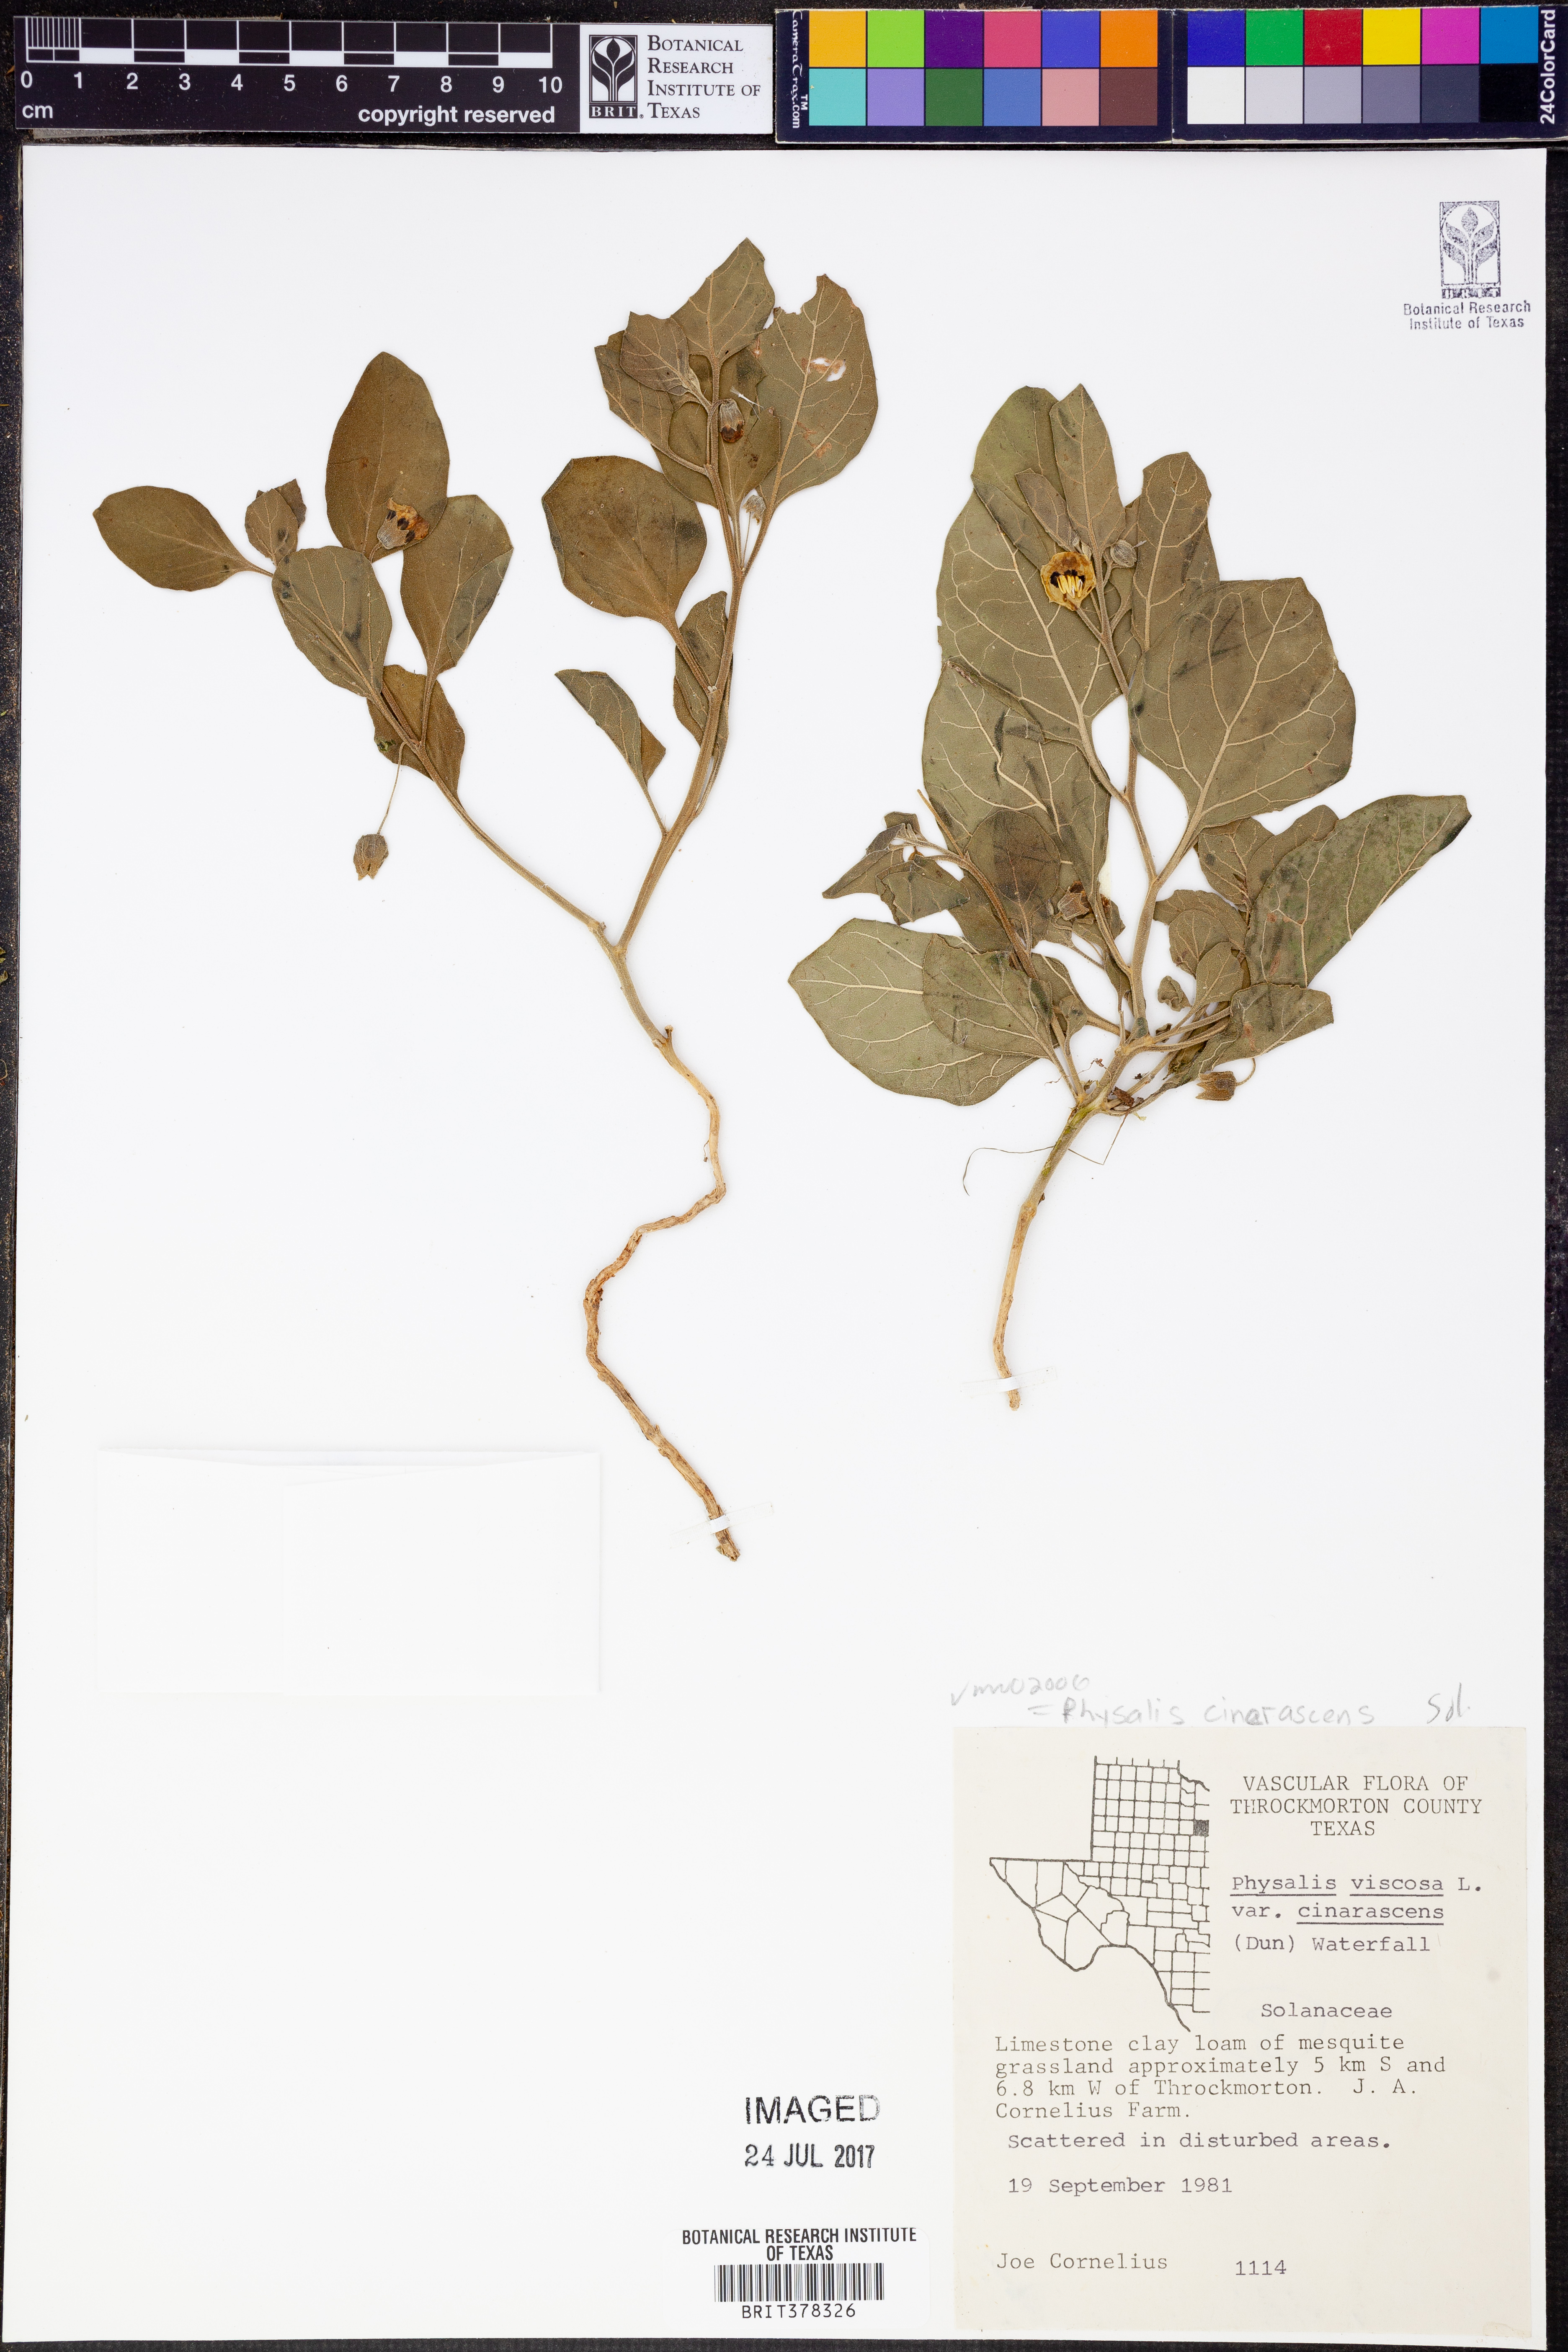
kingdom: Plantae
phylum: Tracheophyta
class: Magnoliopsida
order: Solanales
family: Solanaceae
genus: Physalis
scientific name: Physalis cinerascens
